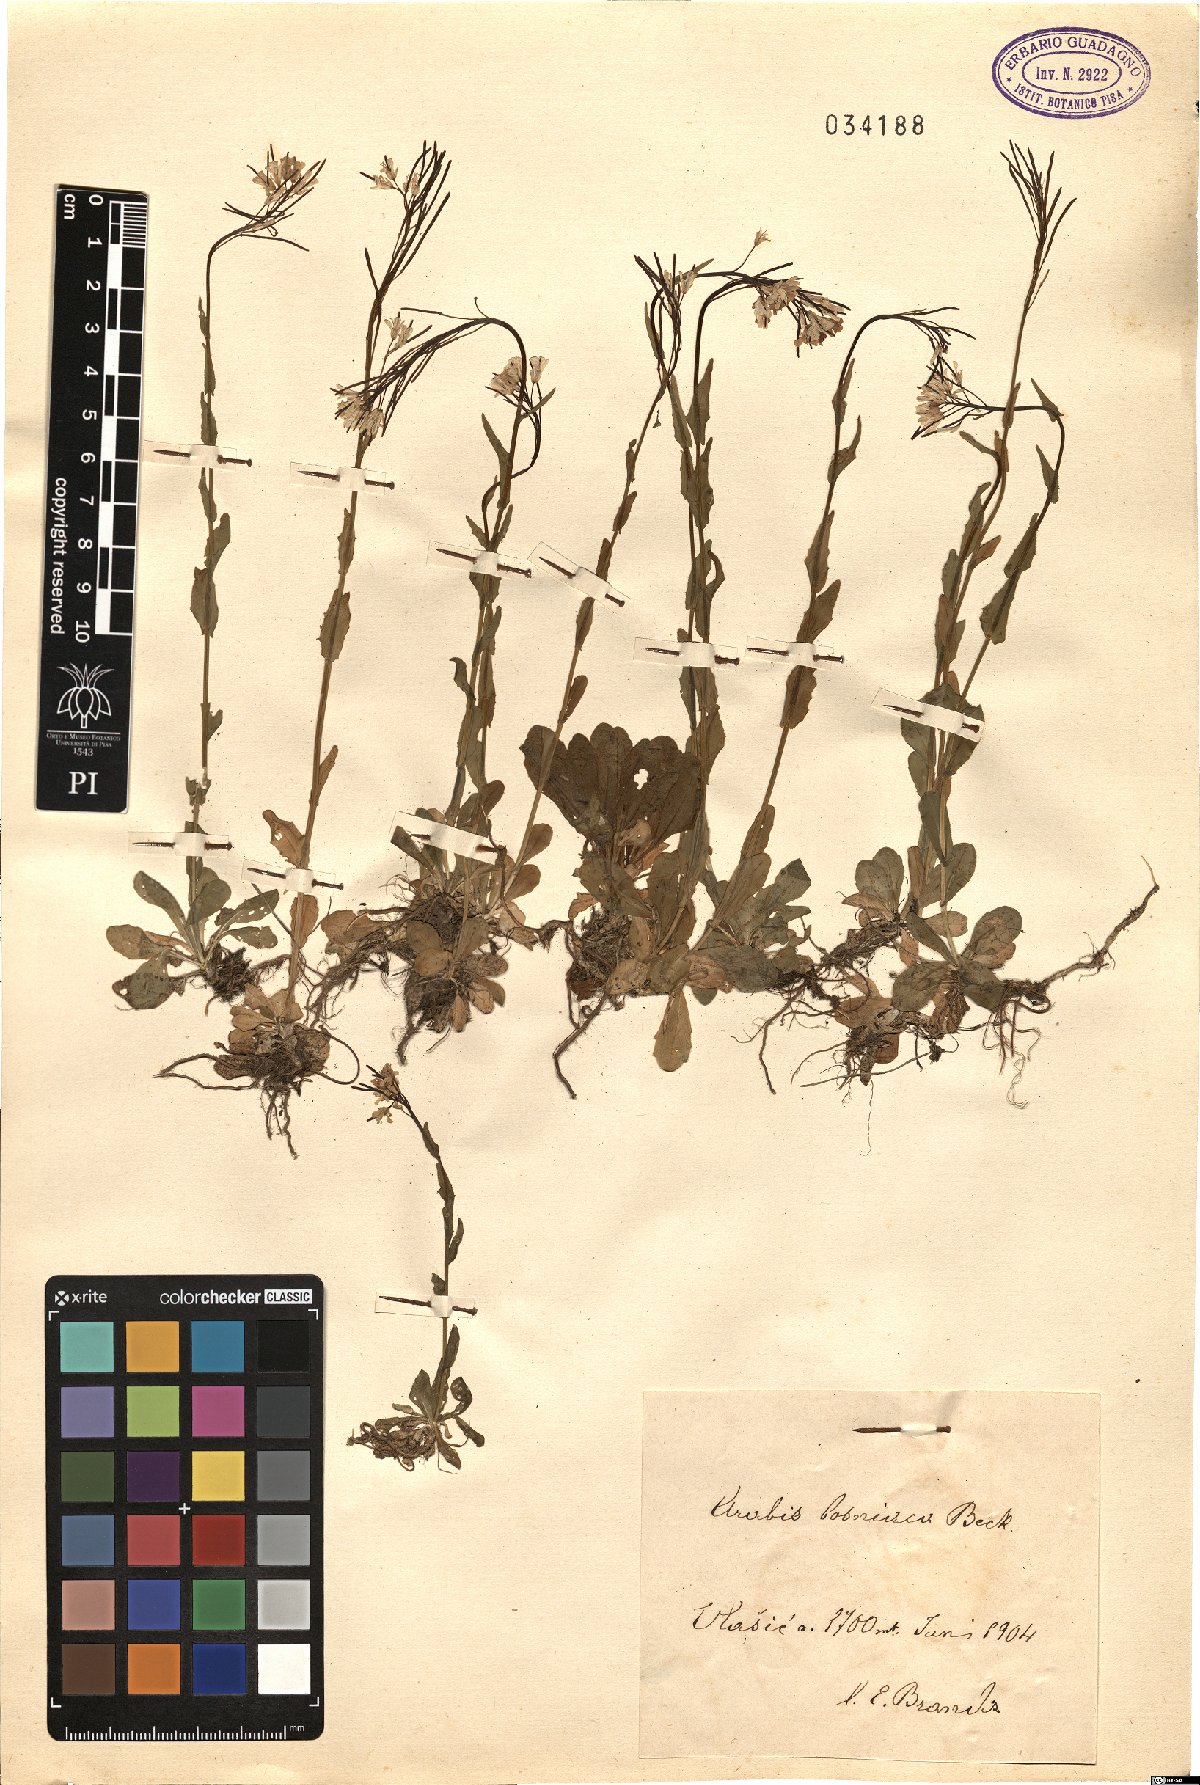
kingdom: Plantae
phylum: Tracheophyta
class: Magnoliopsida
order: Brassicales
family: Brassicaceae
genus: Arabis
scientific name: Arabis sudetica
